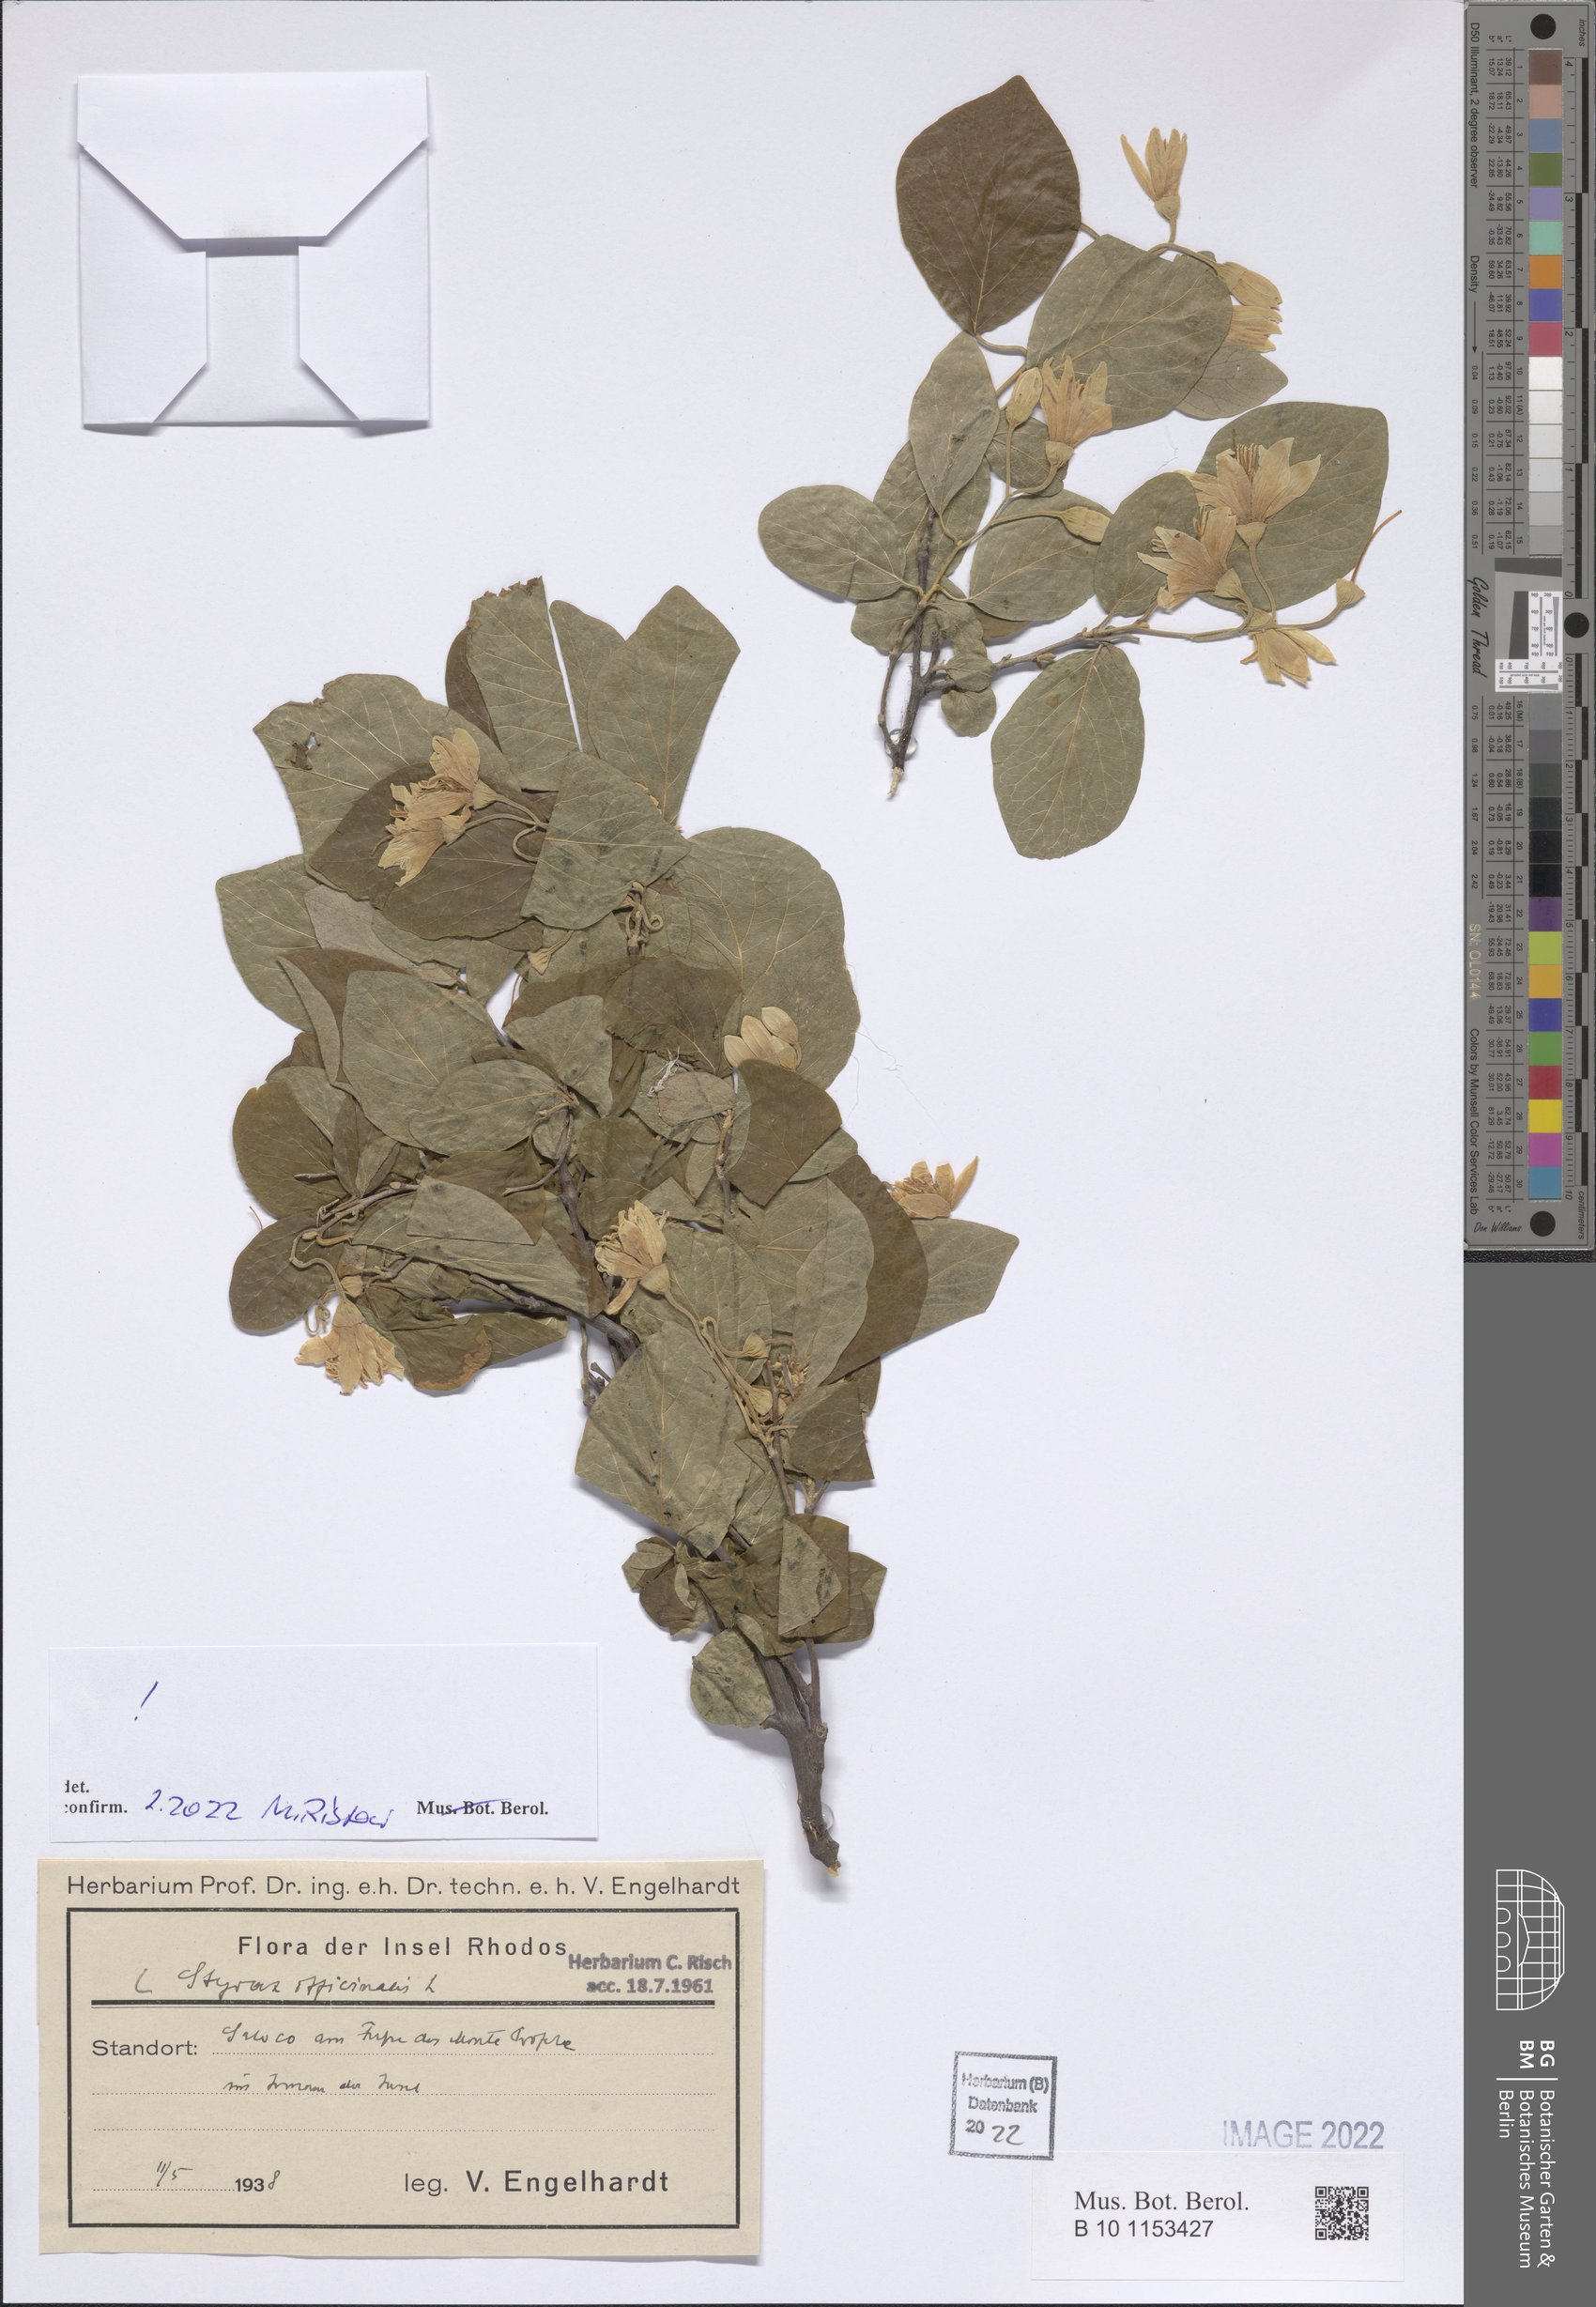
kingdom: Plantae
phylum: Tracheophyta
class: Magnoliopsida
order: Ericales
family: Styracaceae
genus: Styrax
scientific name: Styrax officinalis
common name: Storax
